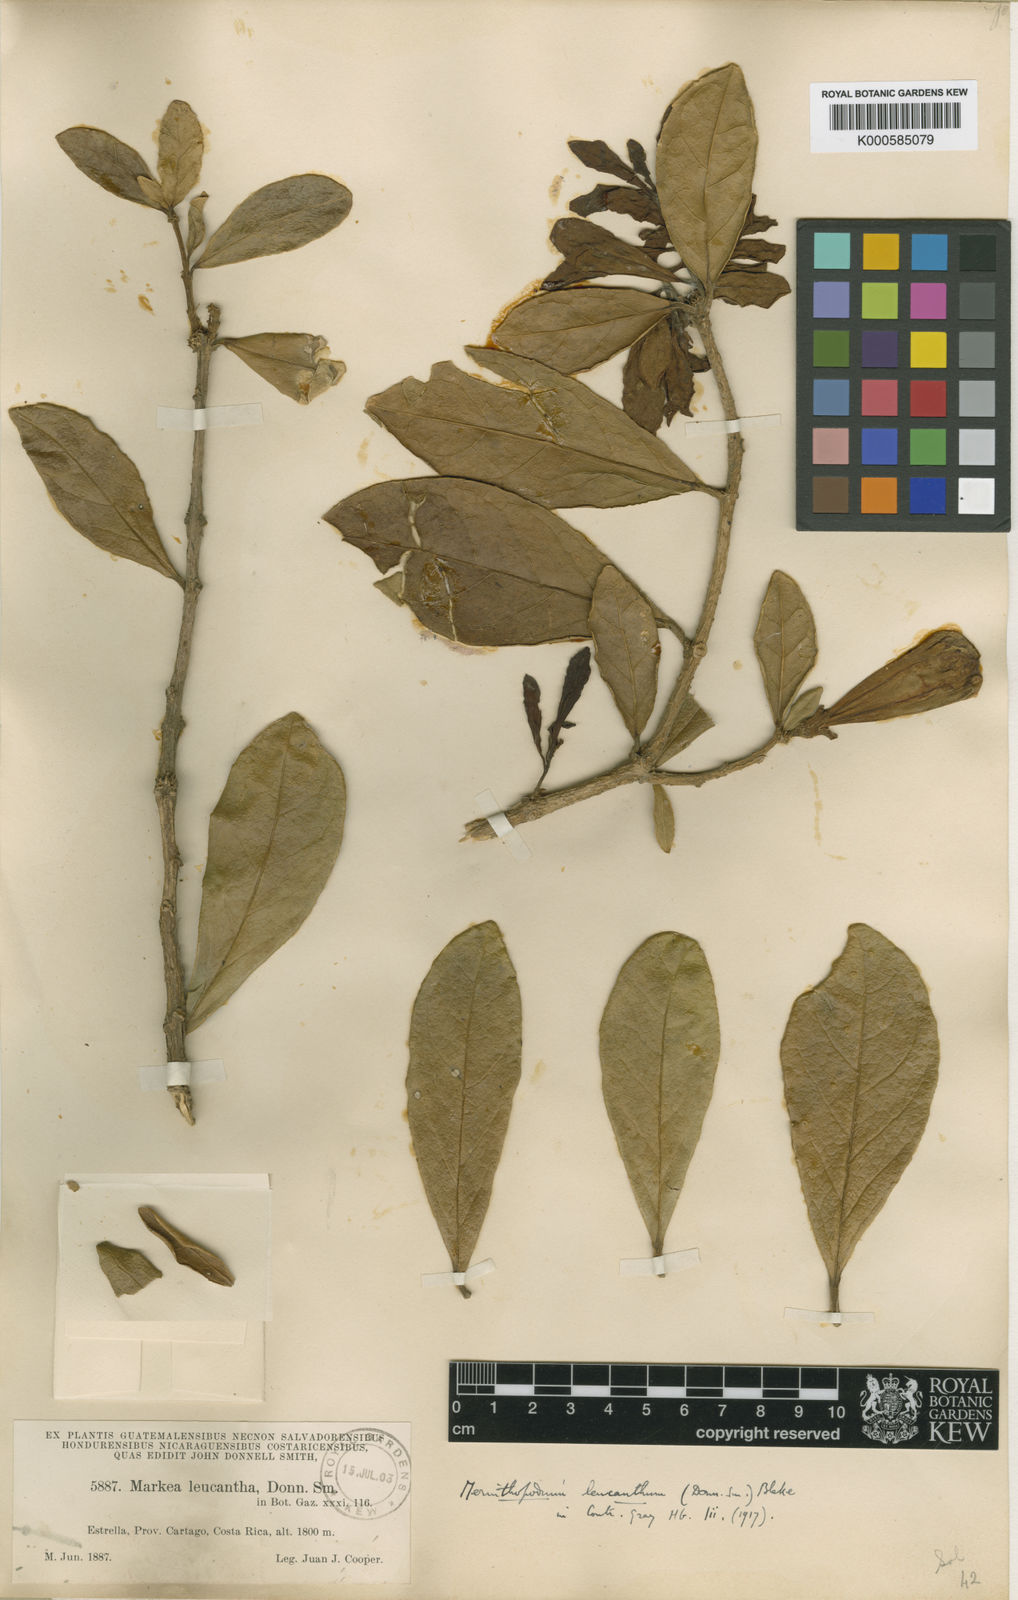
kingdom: Plantae
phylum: Tracheophyta
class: Magnoliopsida
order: Solanales
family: Solanaceae
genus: Schultesianthus
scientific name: Schultesianthus leucanthus
